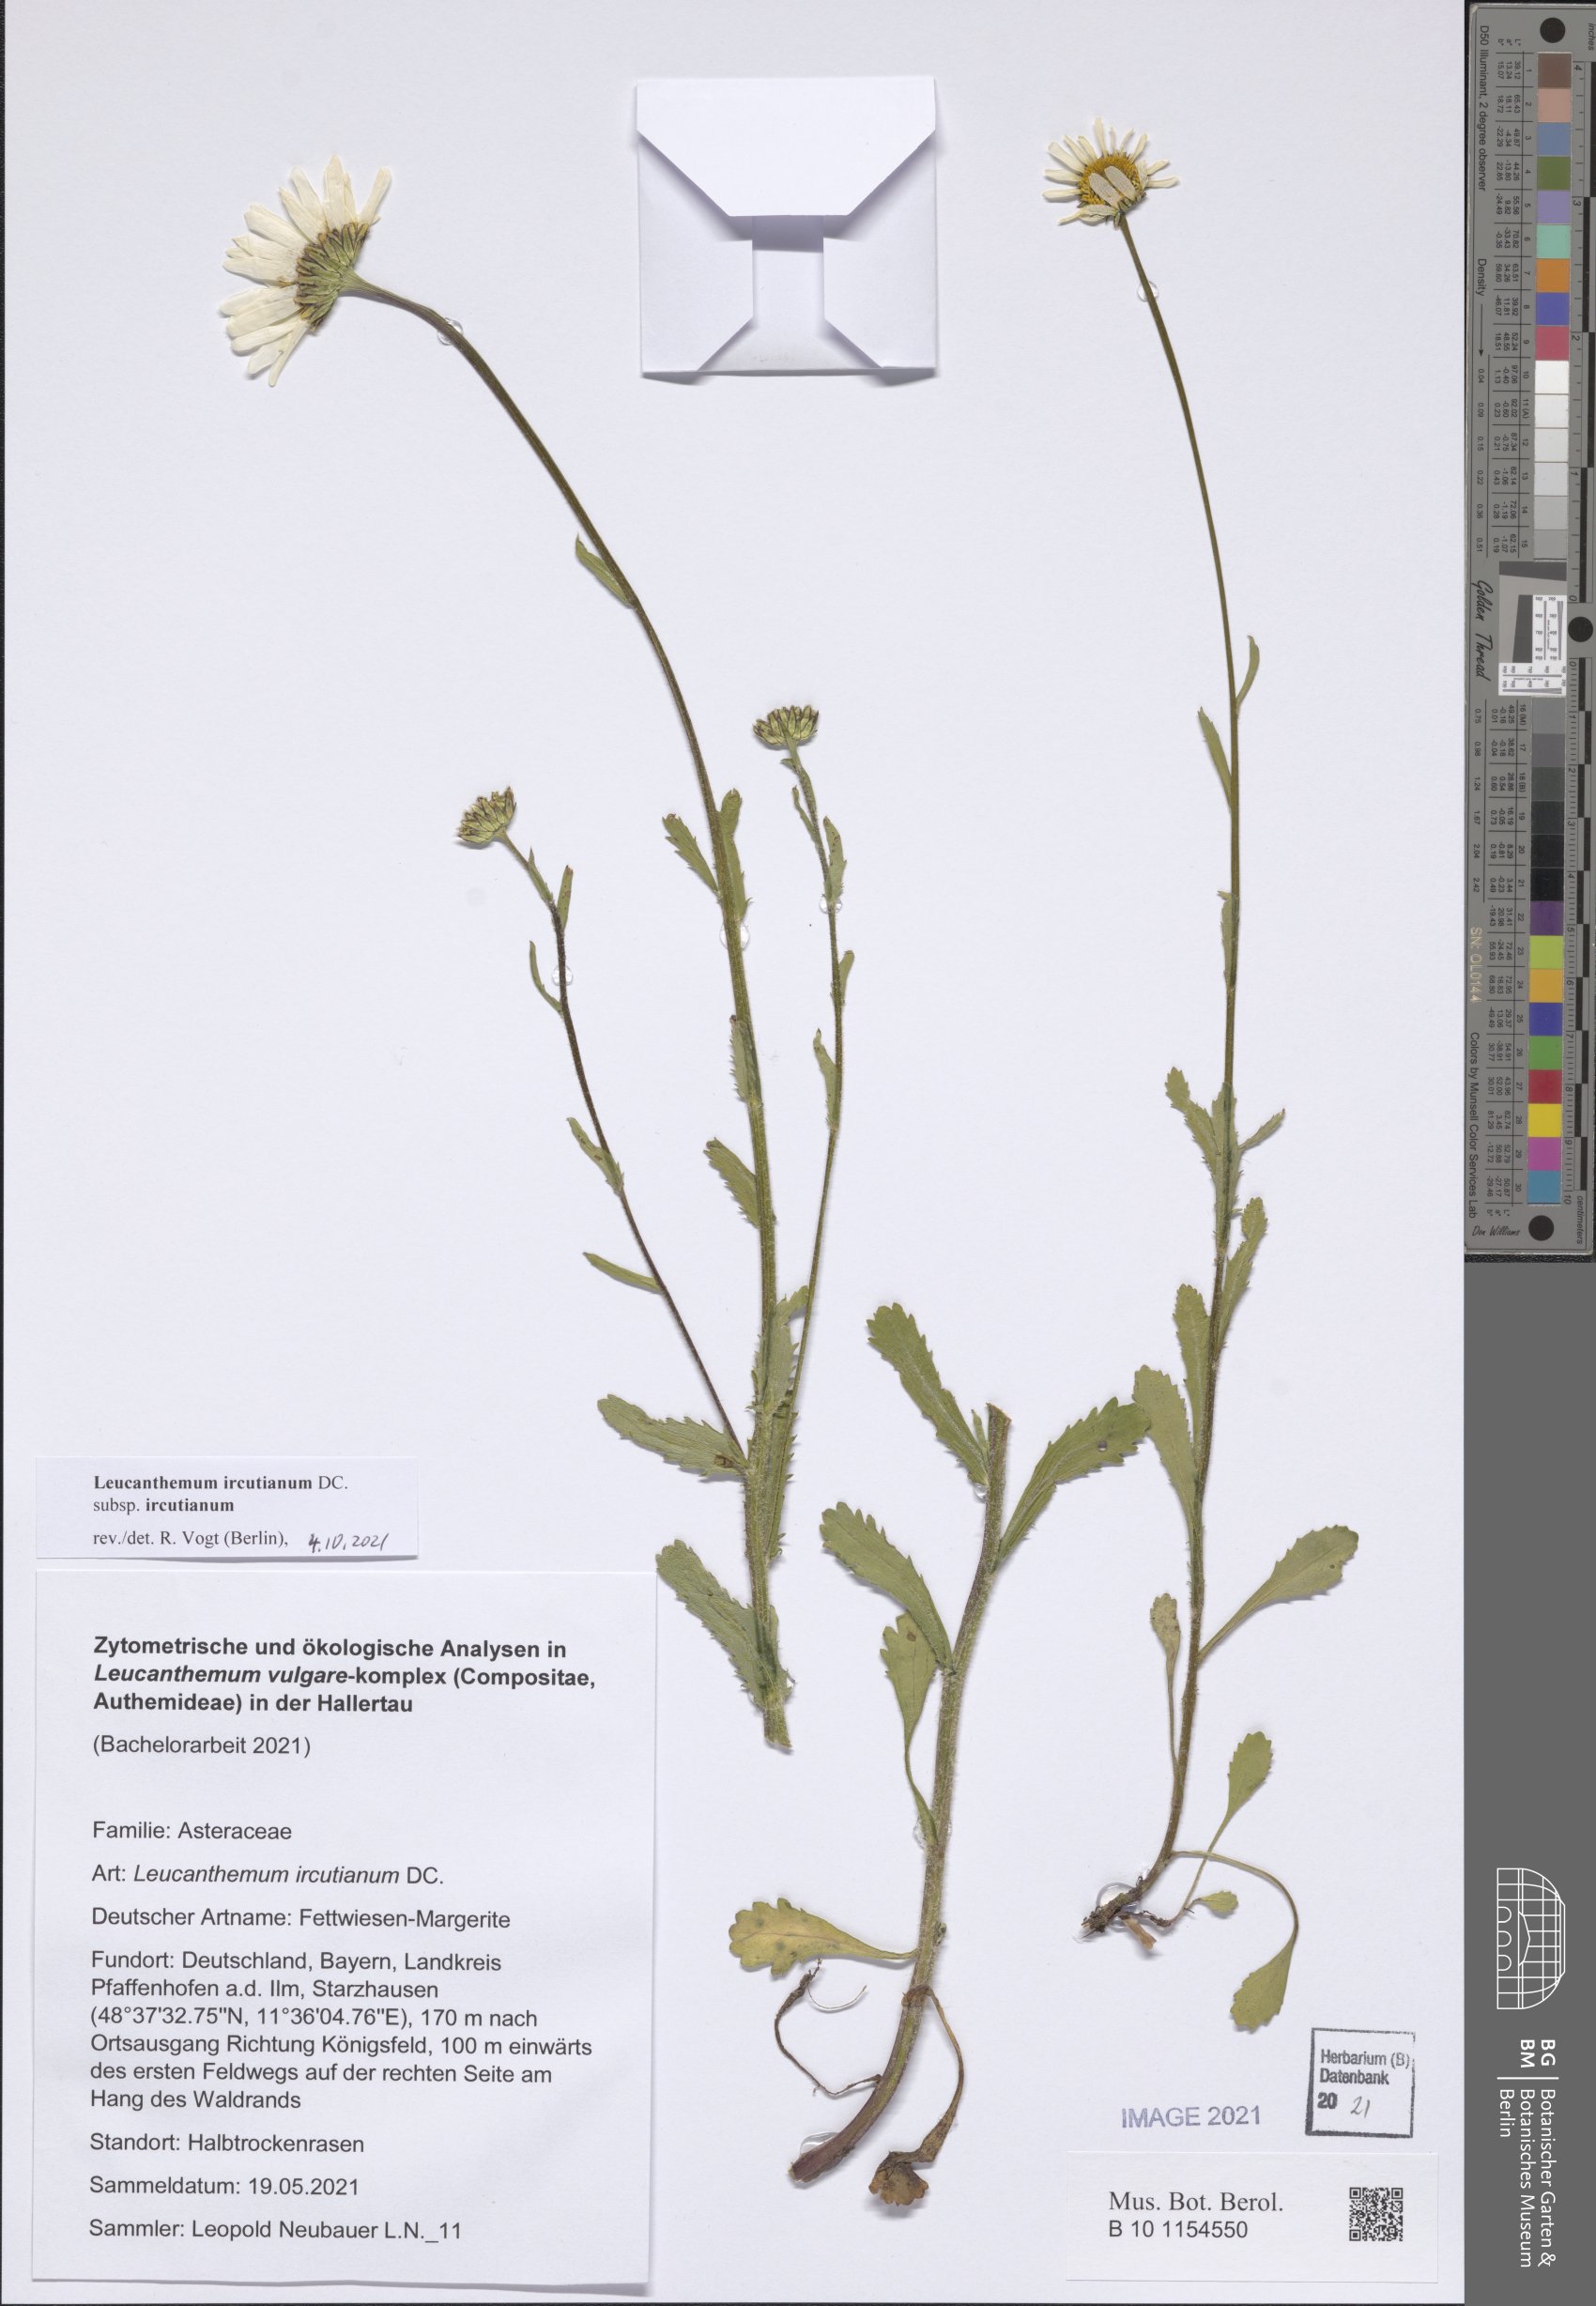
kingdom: Plantae
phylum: Tracheophyta
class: Magnoliopsida
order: Asterales
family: Asteraceae
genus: Leucanthemum
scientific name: Leucanthemum ircutianum
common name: Daisy
